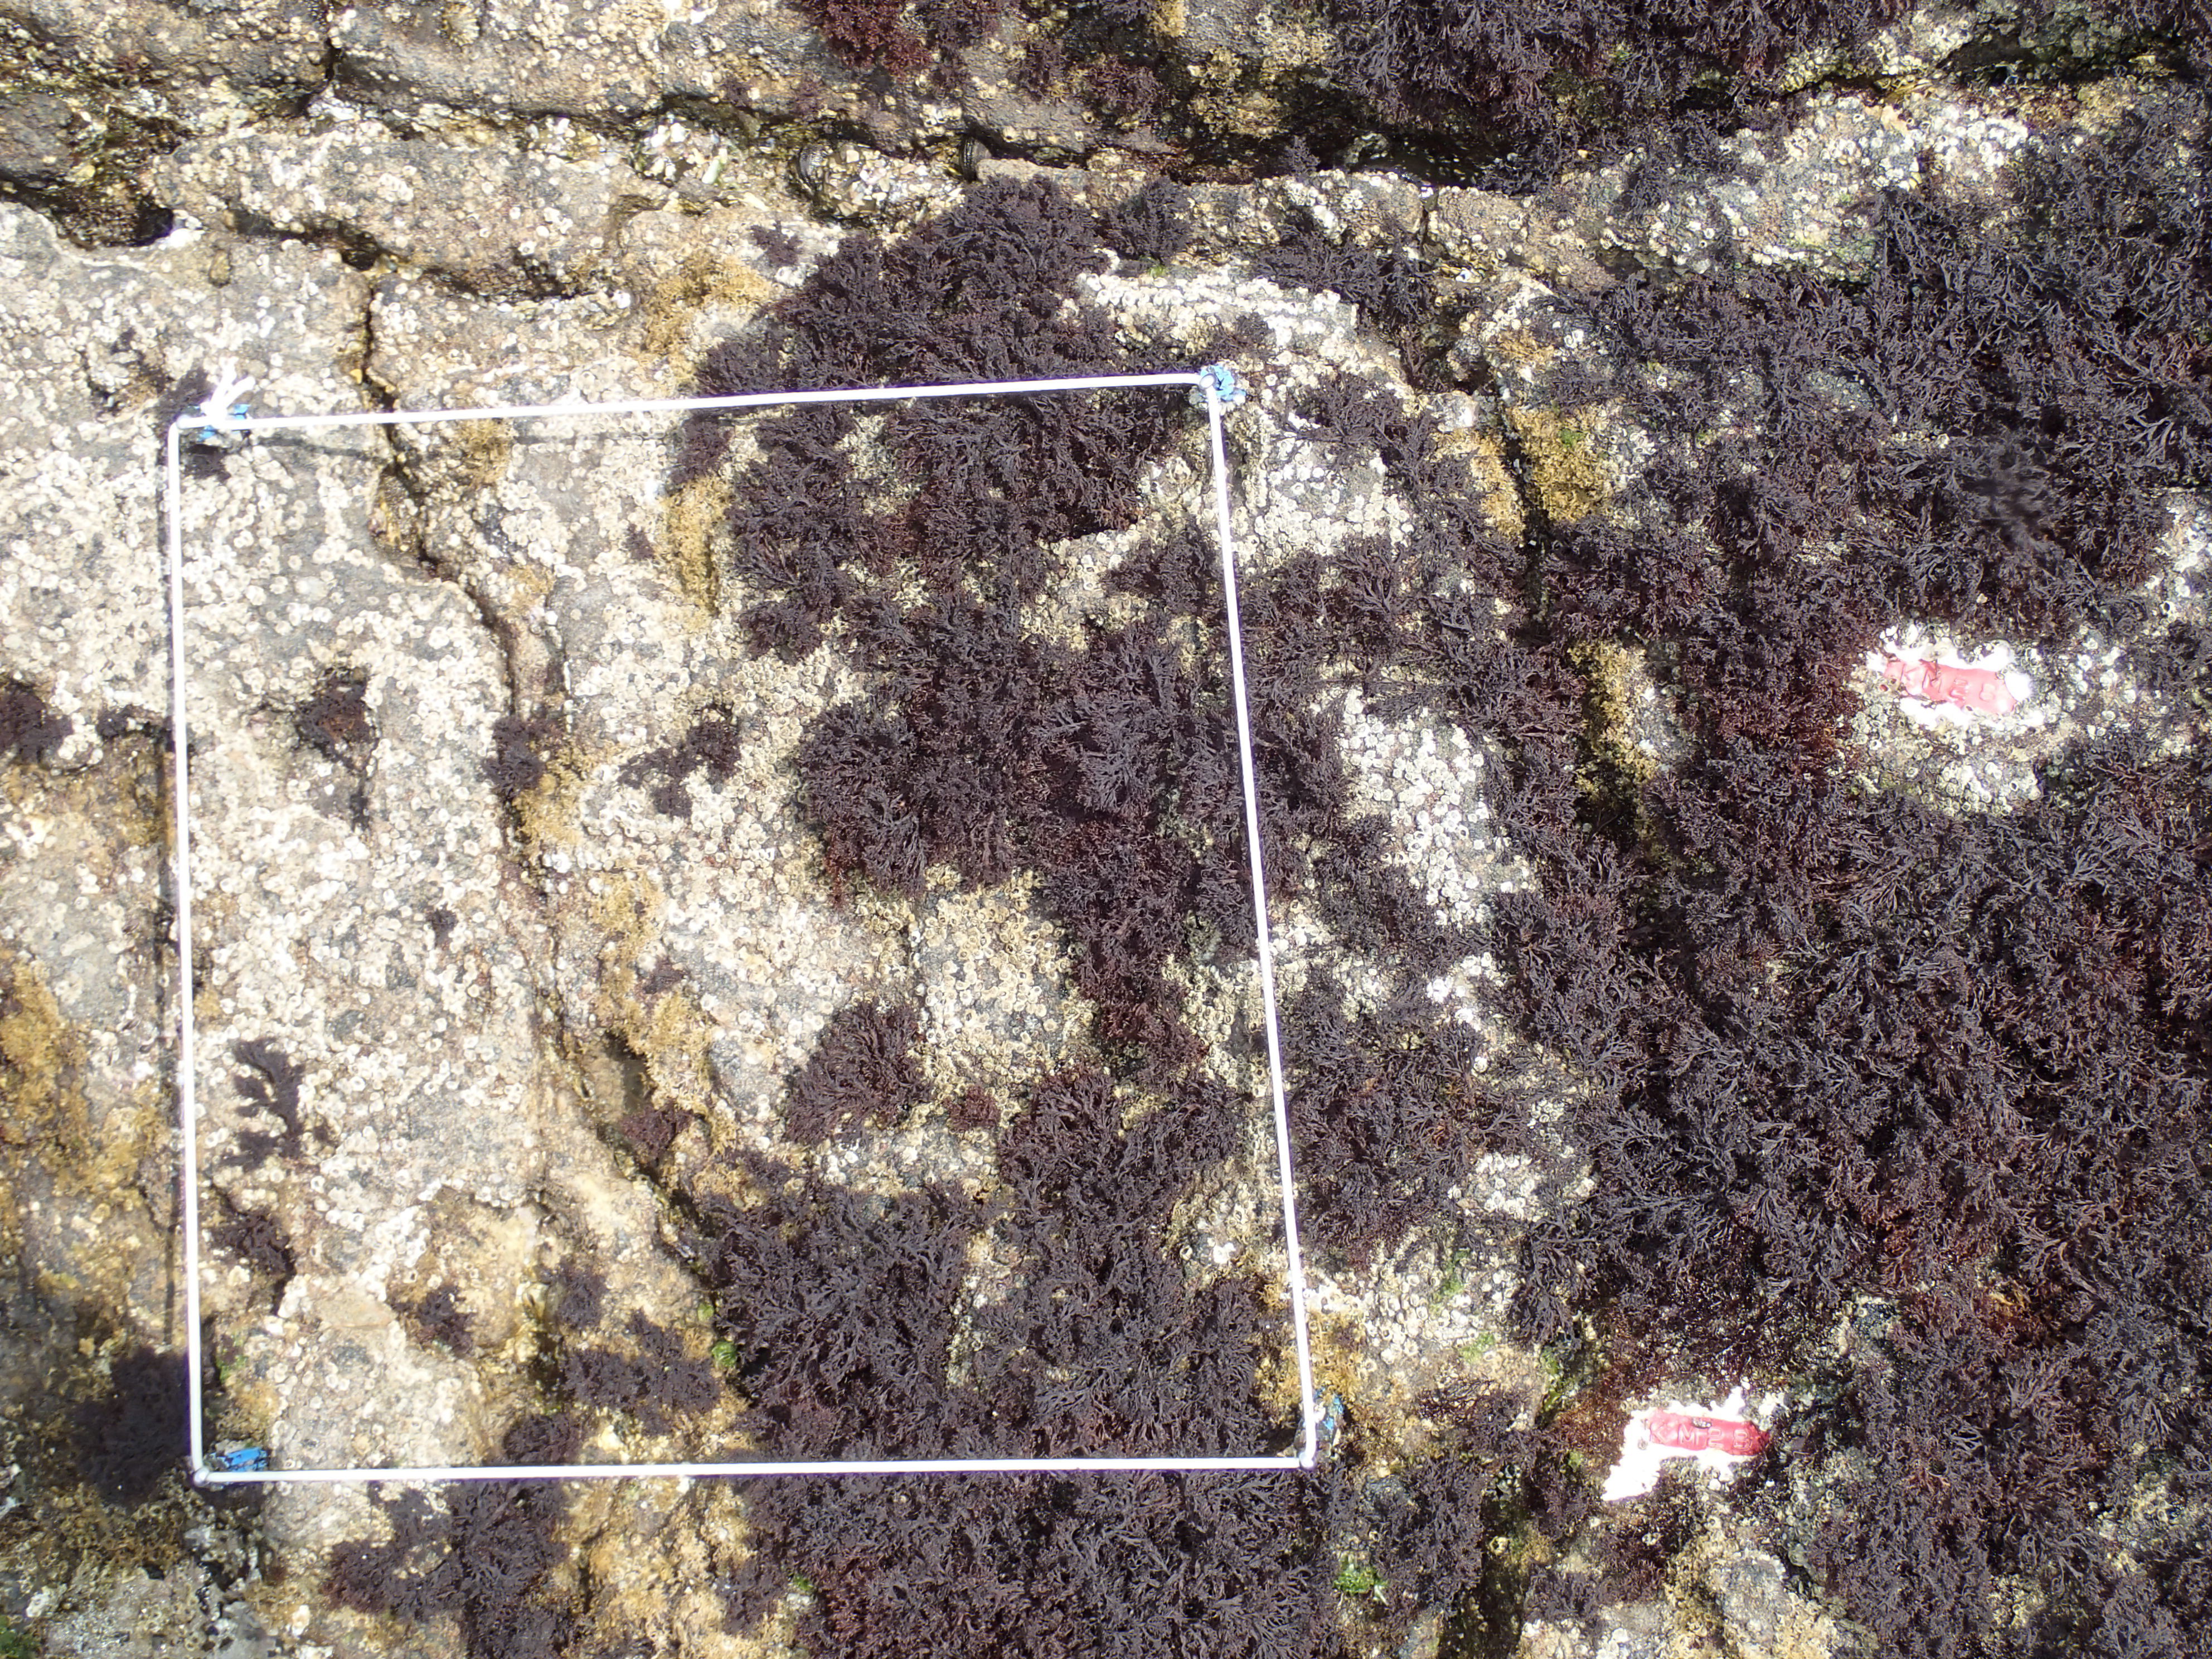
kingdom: Animalia
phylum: Arthropoda
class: Maxillopoda
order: Sessilia
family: Chthamalidae
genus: Chthamalus
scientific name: Chthamalus challengeri
